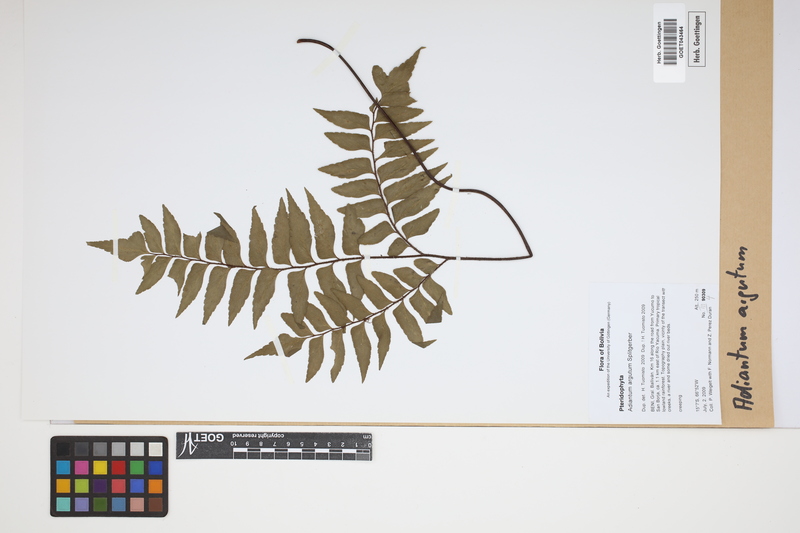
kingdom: Plantae
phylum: Tracheophyta
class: Polypodiopsida
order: Polypodiales
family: Pteridaceae
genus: Adiantum
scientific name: Adiantum argutum
